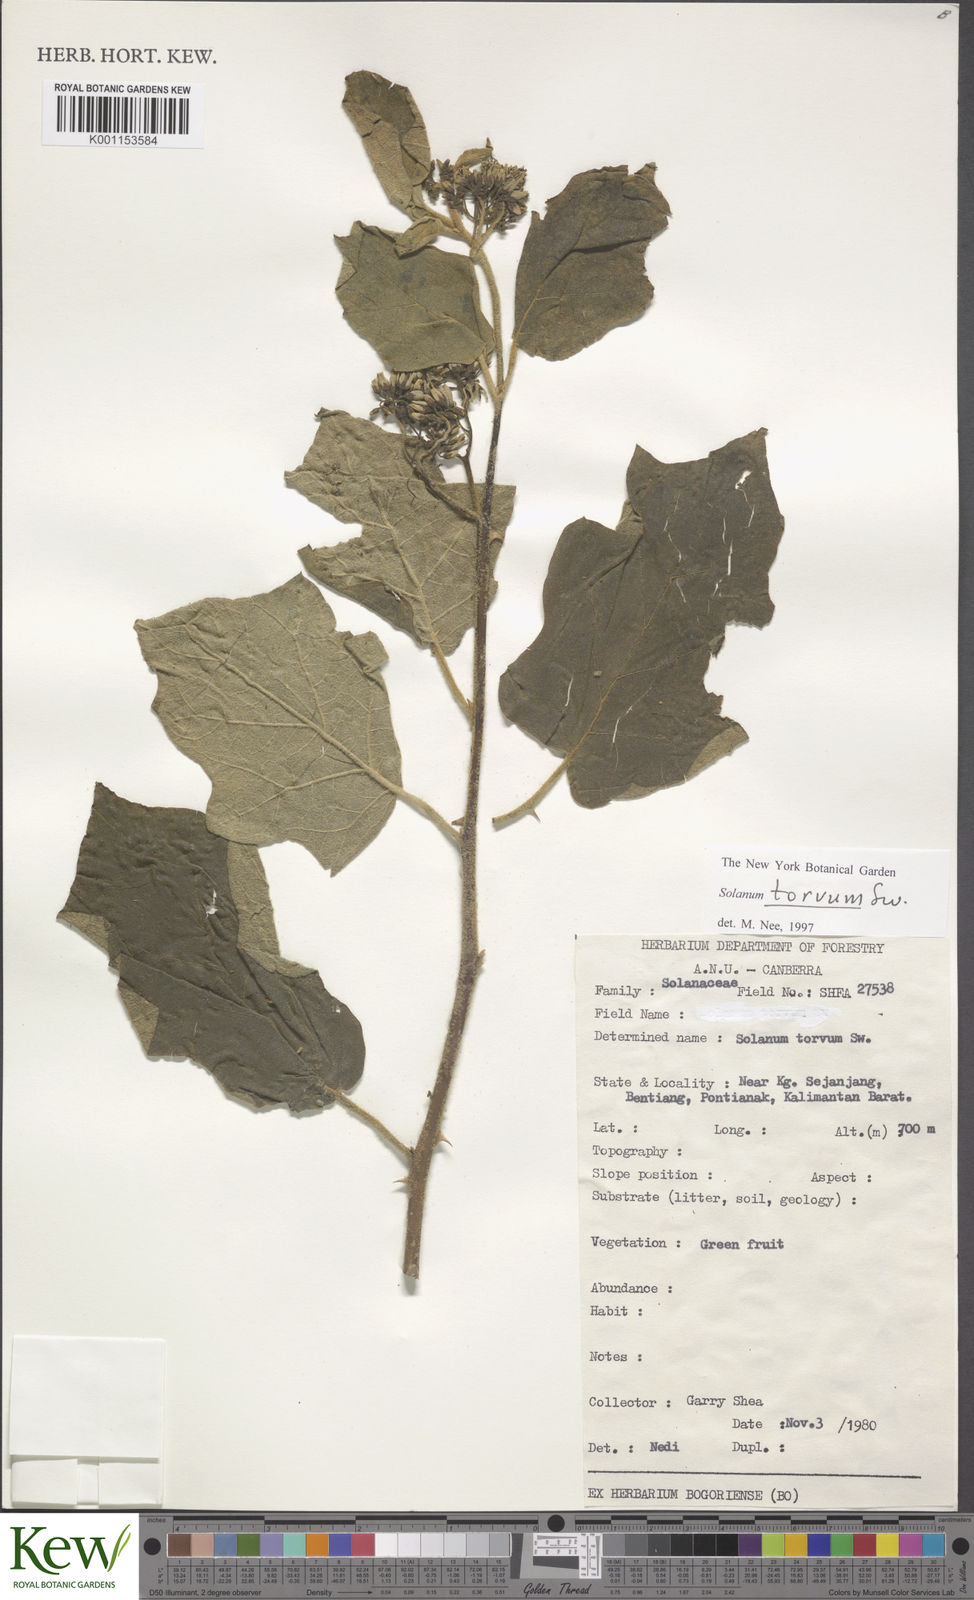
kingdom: Plantae
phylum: Tracheophyta
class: Magnoliopsida
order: Solanales
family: Solanaceae
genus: Solanum
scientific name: Solanum torvum
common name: Turkey berry
